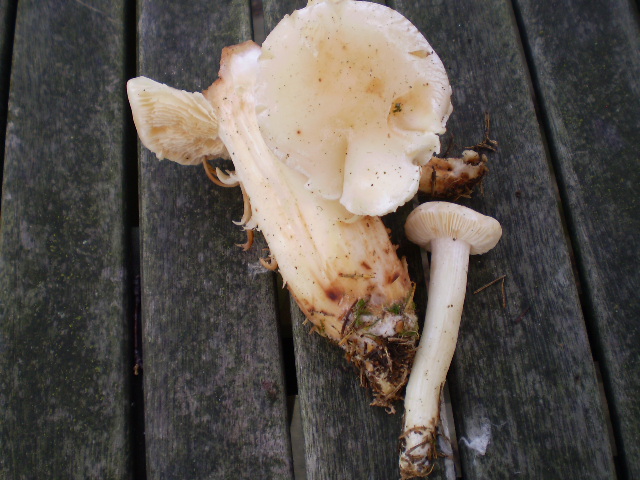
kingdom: Fungi
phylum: Basidiomycota
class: Agaricomycetes
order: Agaricales
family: Omphalotaceae
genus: Rhodocollybia
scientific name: Rhodocollybia maculata
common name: plettet fladhat
